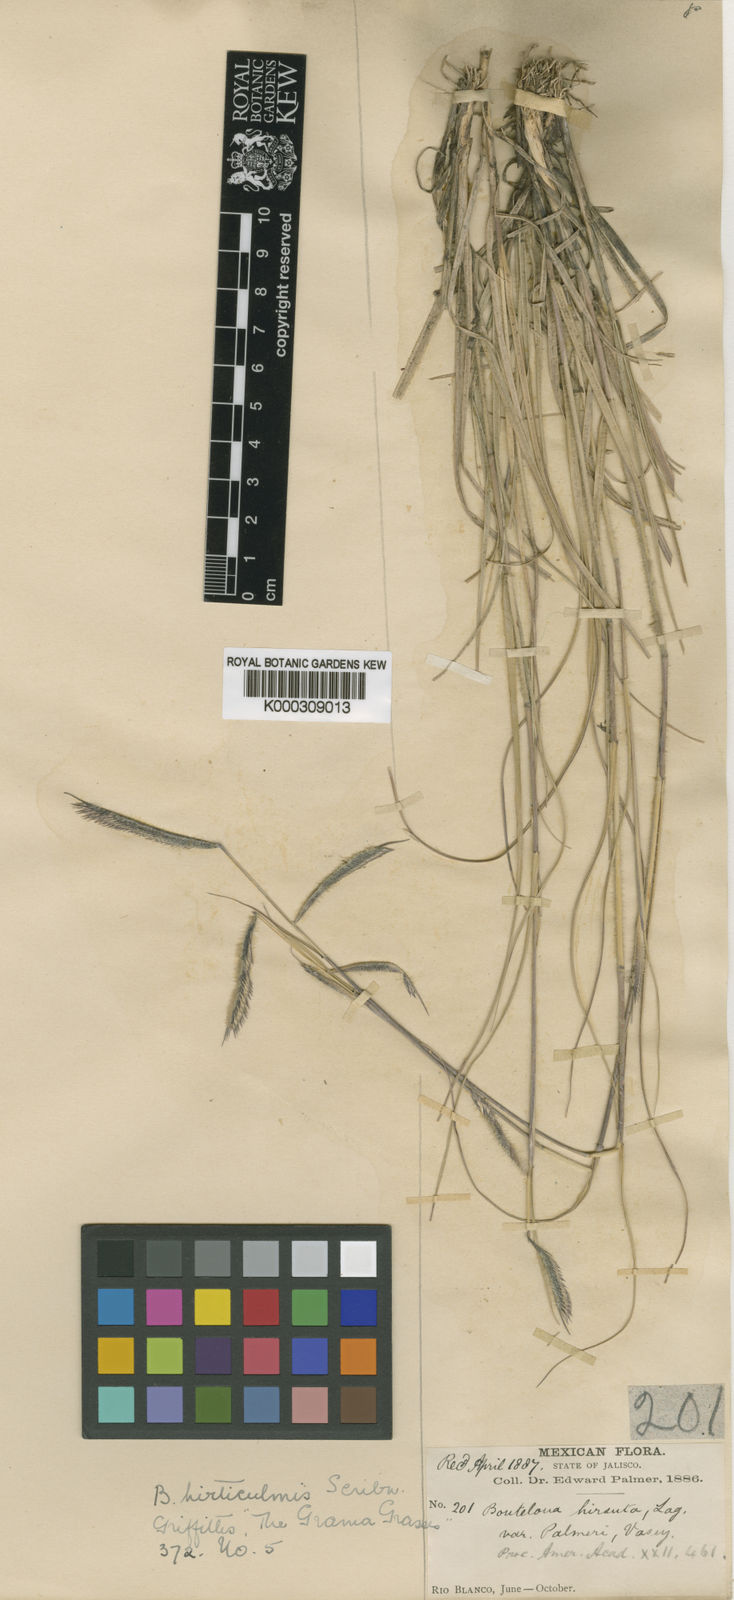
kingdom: Plantae
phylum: Tracheophyta
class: Liliopsida
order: Poales
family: Poaceae
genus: Bouteloua
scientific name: Bouteloua hirsuta
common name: Hairy grama
